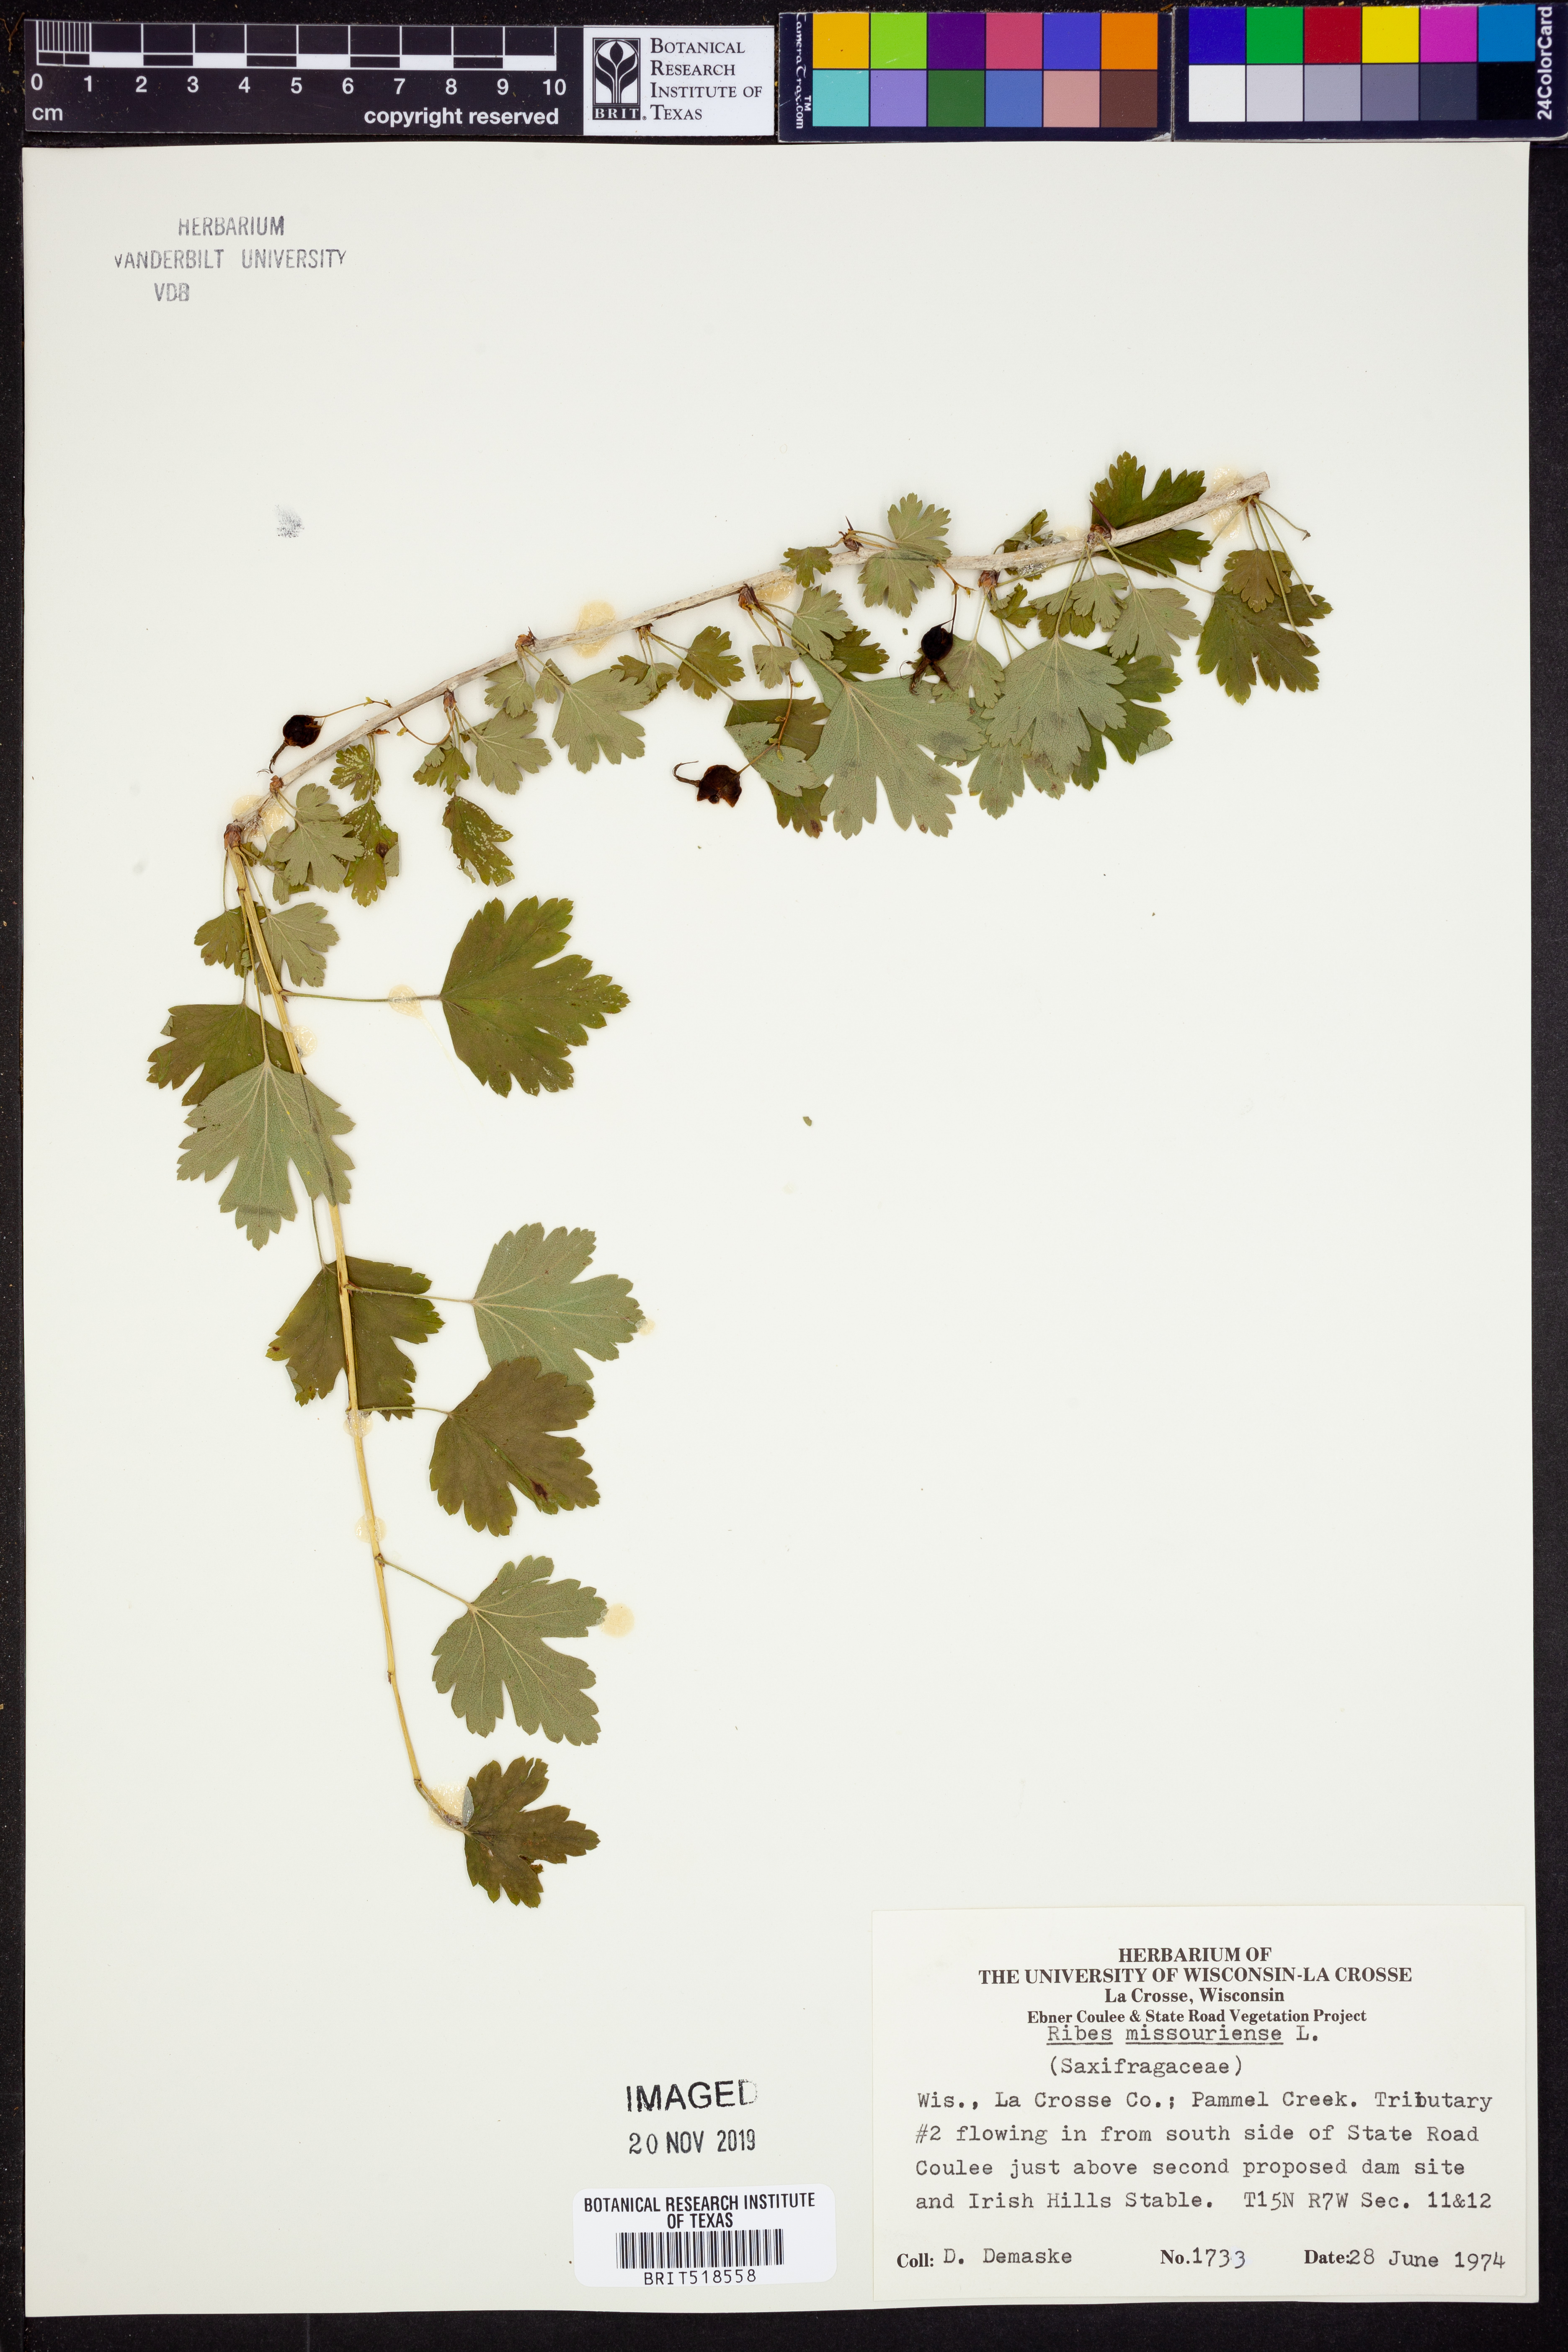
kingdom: Plantae
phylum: Tracheophyta
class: Magnoliopsida
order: Saxifragales
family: Grossulariaceae
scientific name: Grossulariaceae
